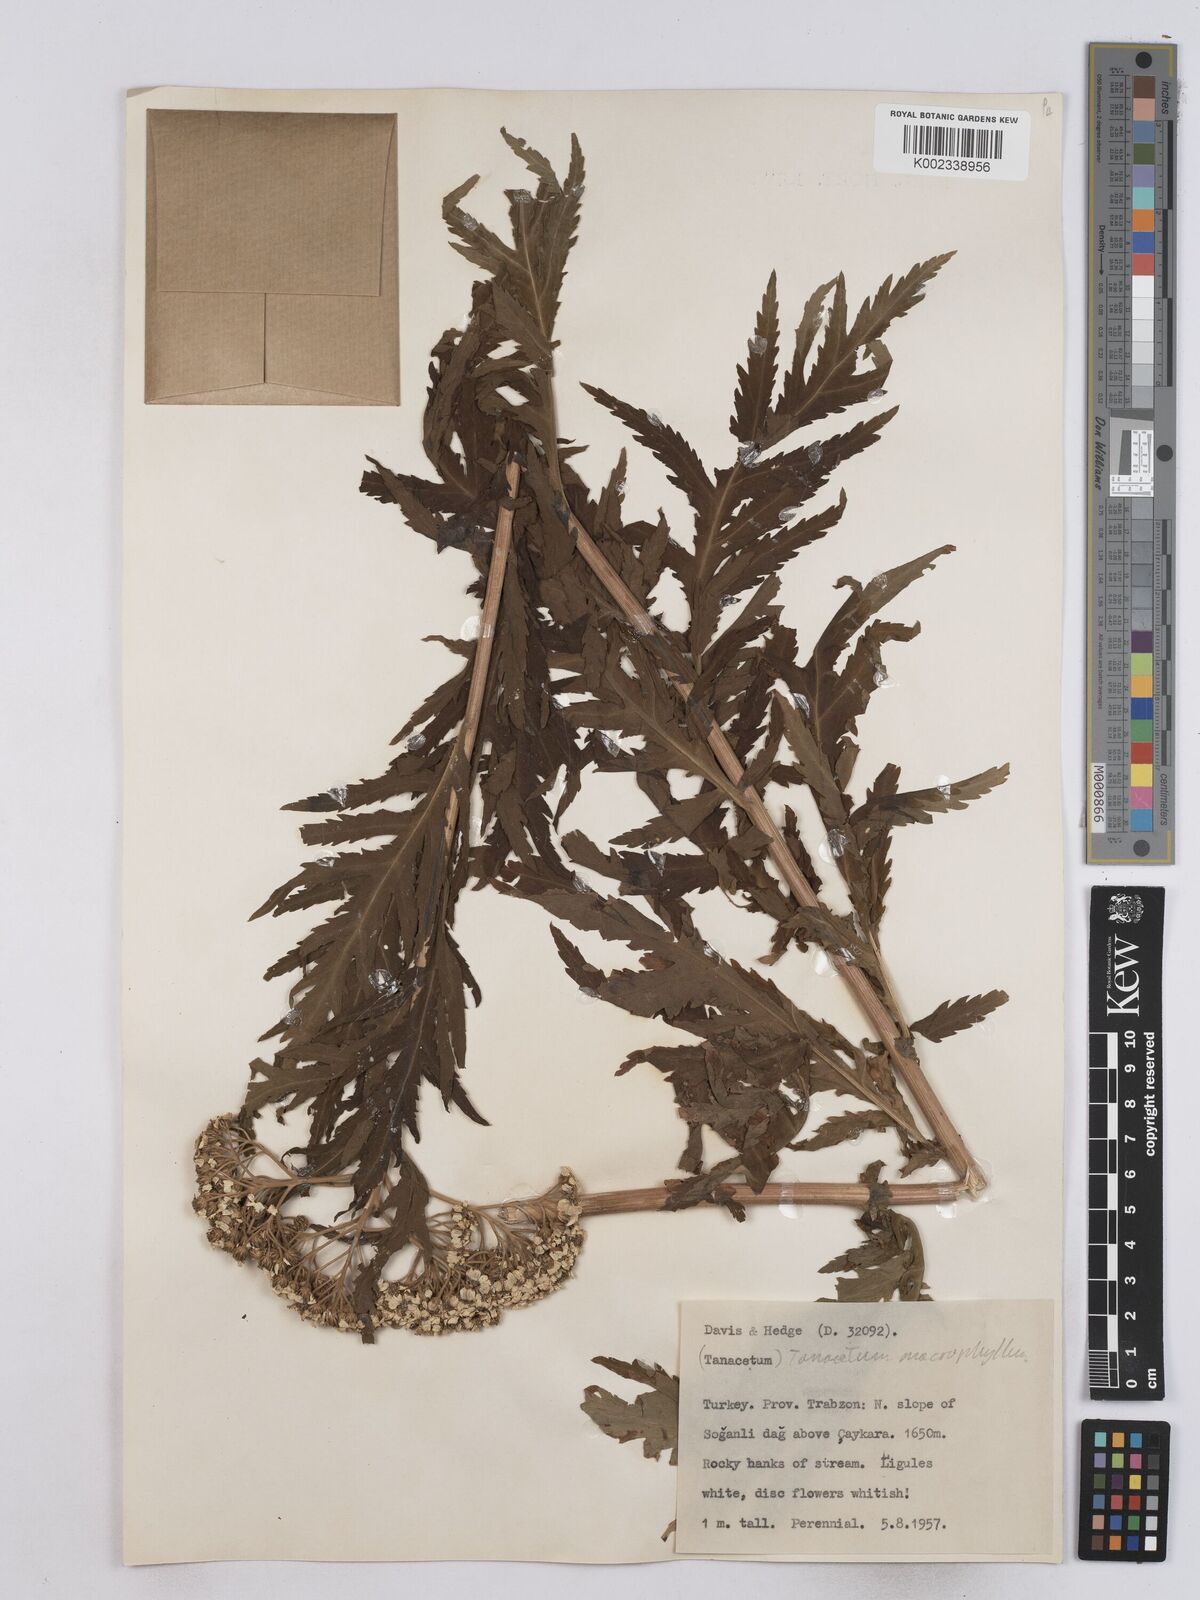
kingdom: Plantae
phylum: Tracheophyta
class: Magnoliopsida
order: Asterales
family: Asteraceae
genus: Tanacetum
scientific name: Tanacetum macrophyllum
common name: Rayed tansy
